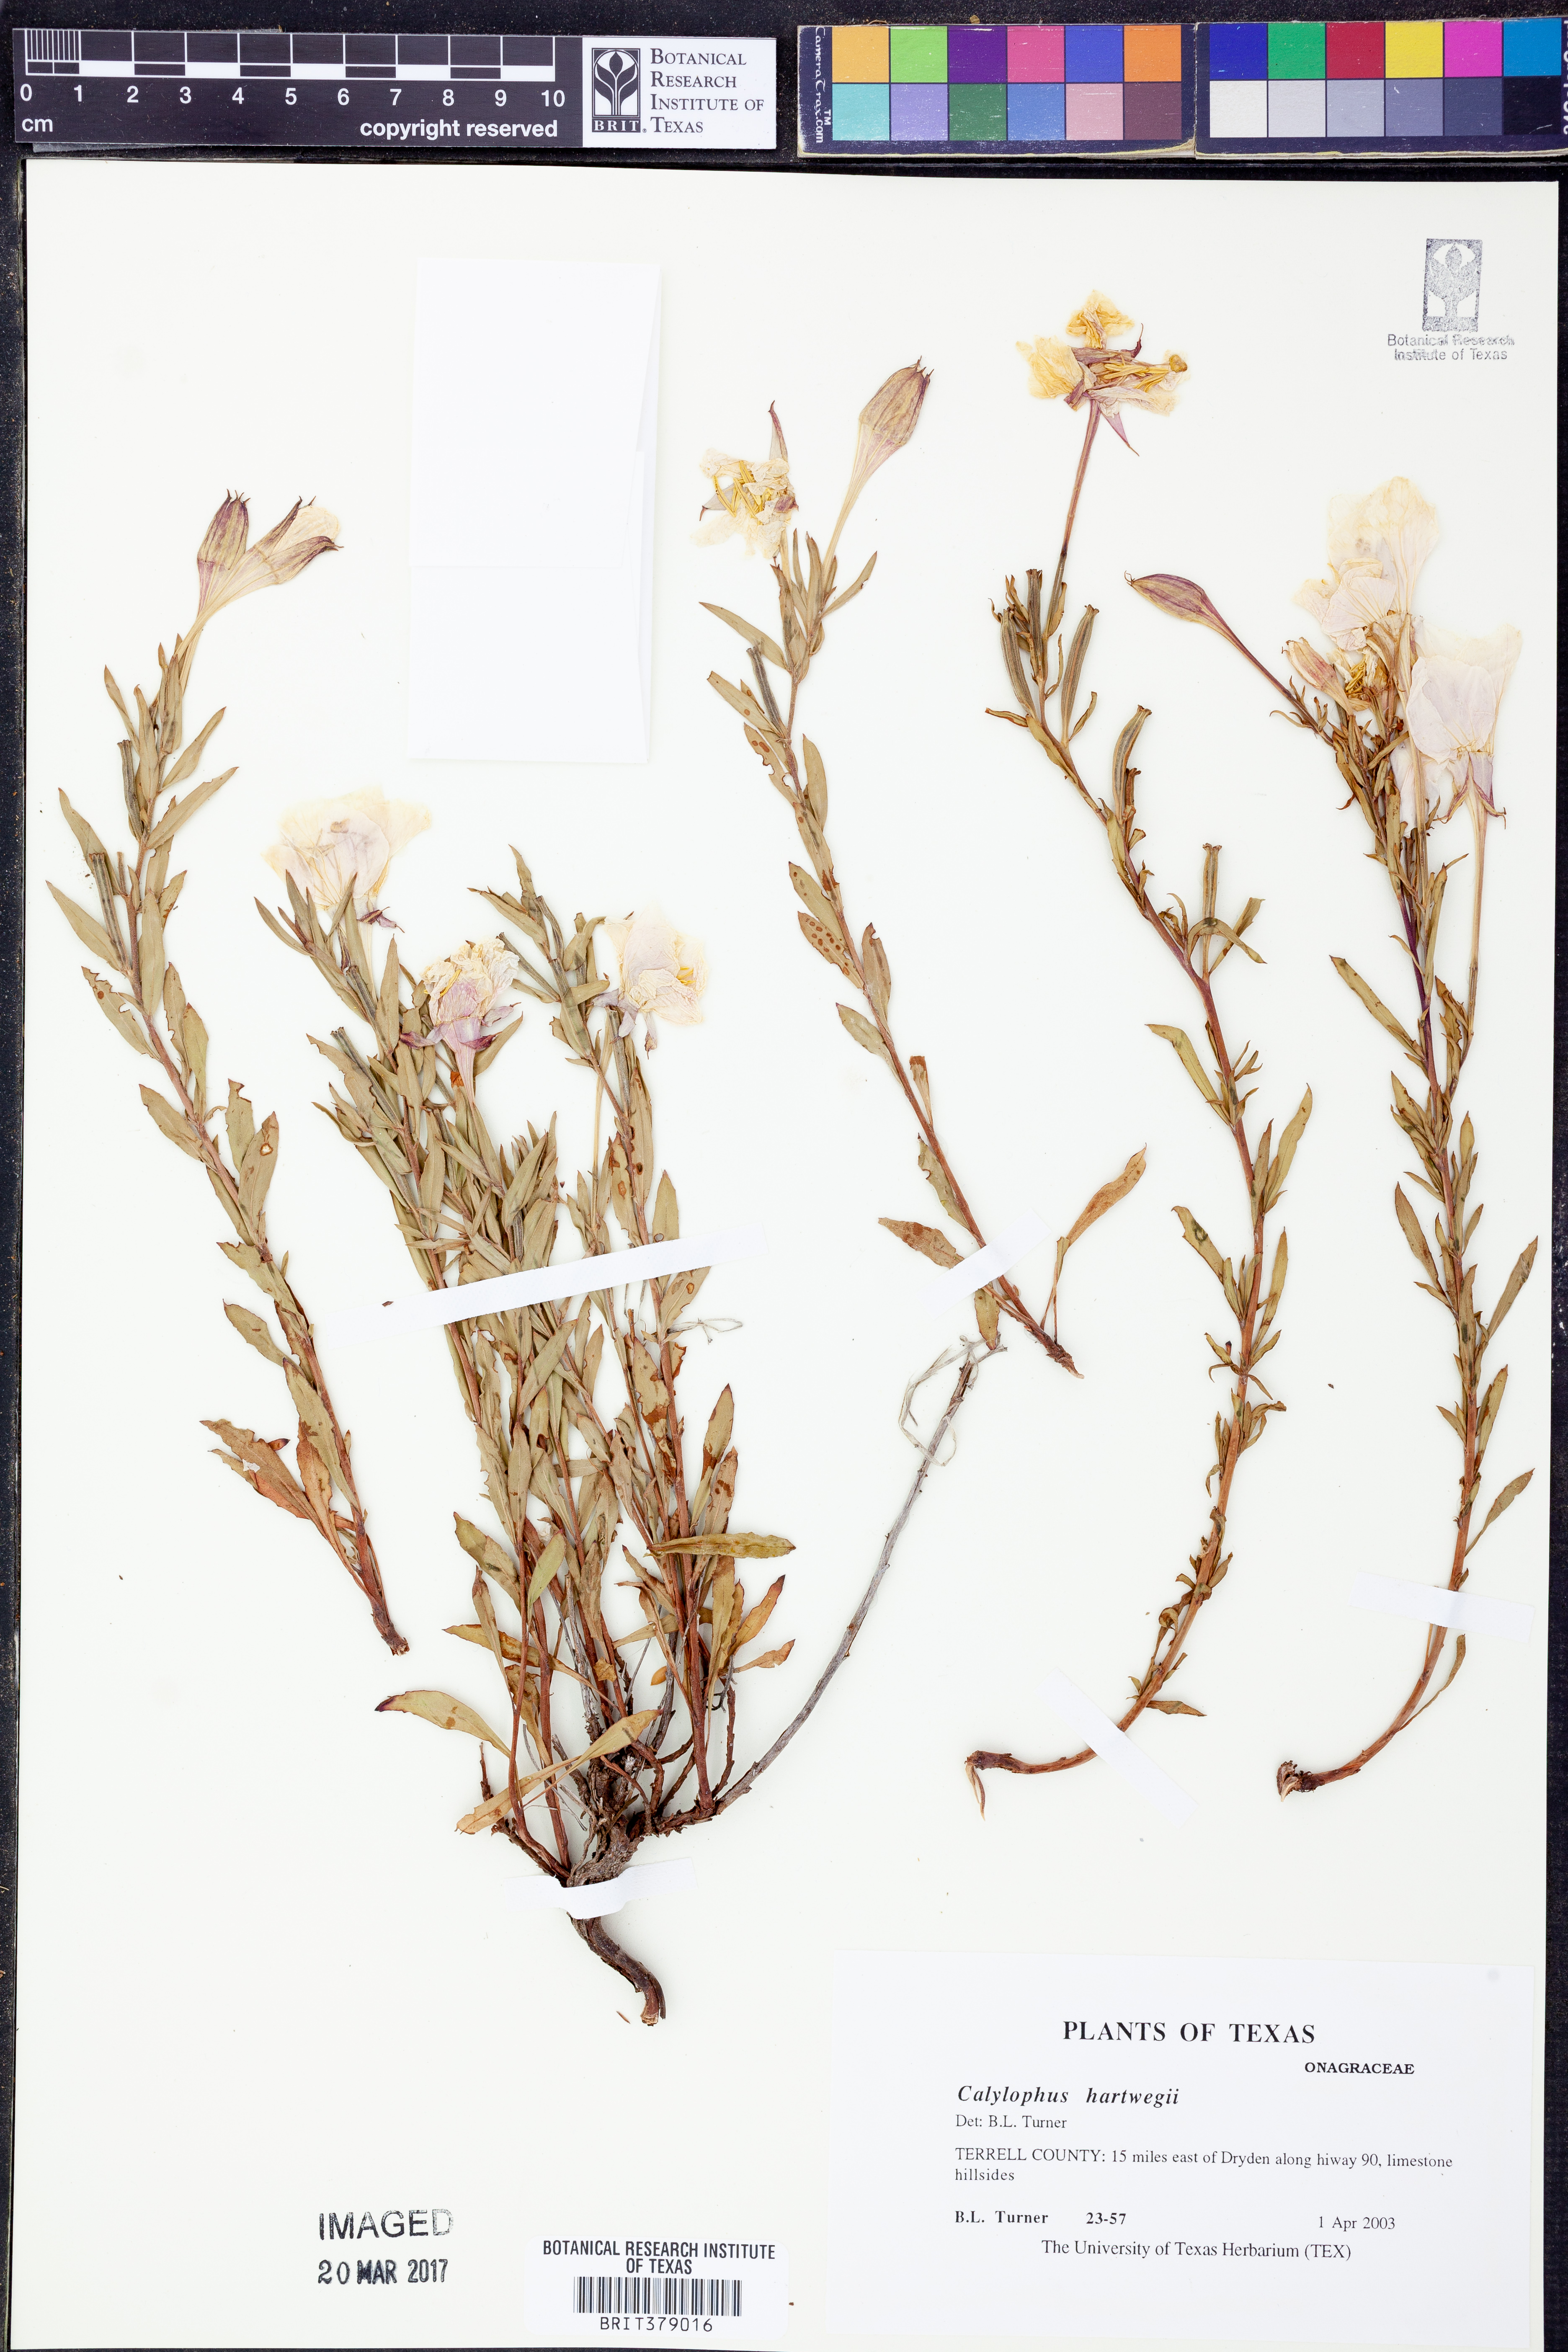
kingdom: Plantae
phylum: Tracheophyta
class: Magnoliopsida
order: Myrtales
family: Onagraceae
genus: Oenothera
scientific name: Oenothera hartwegii
